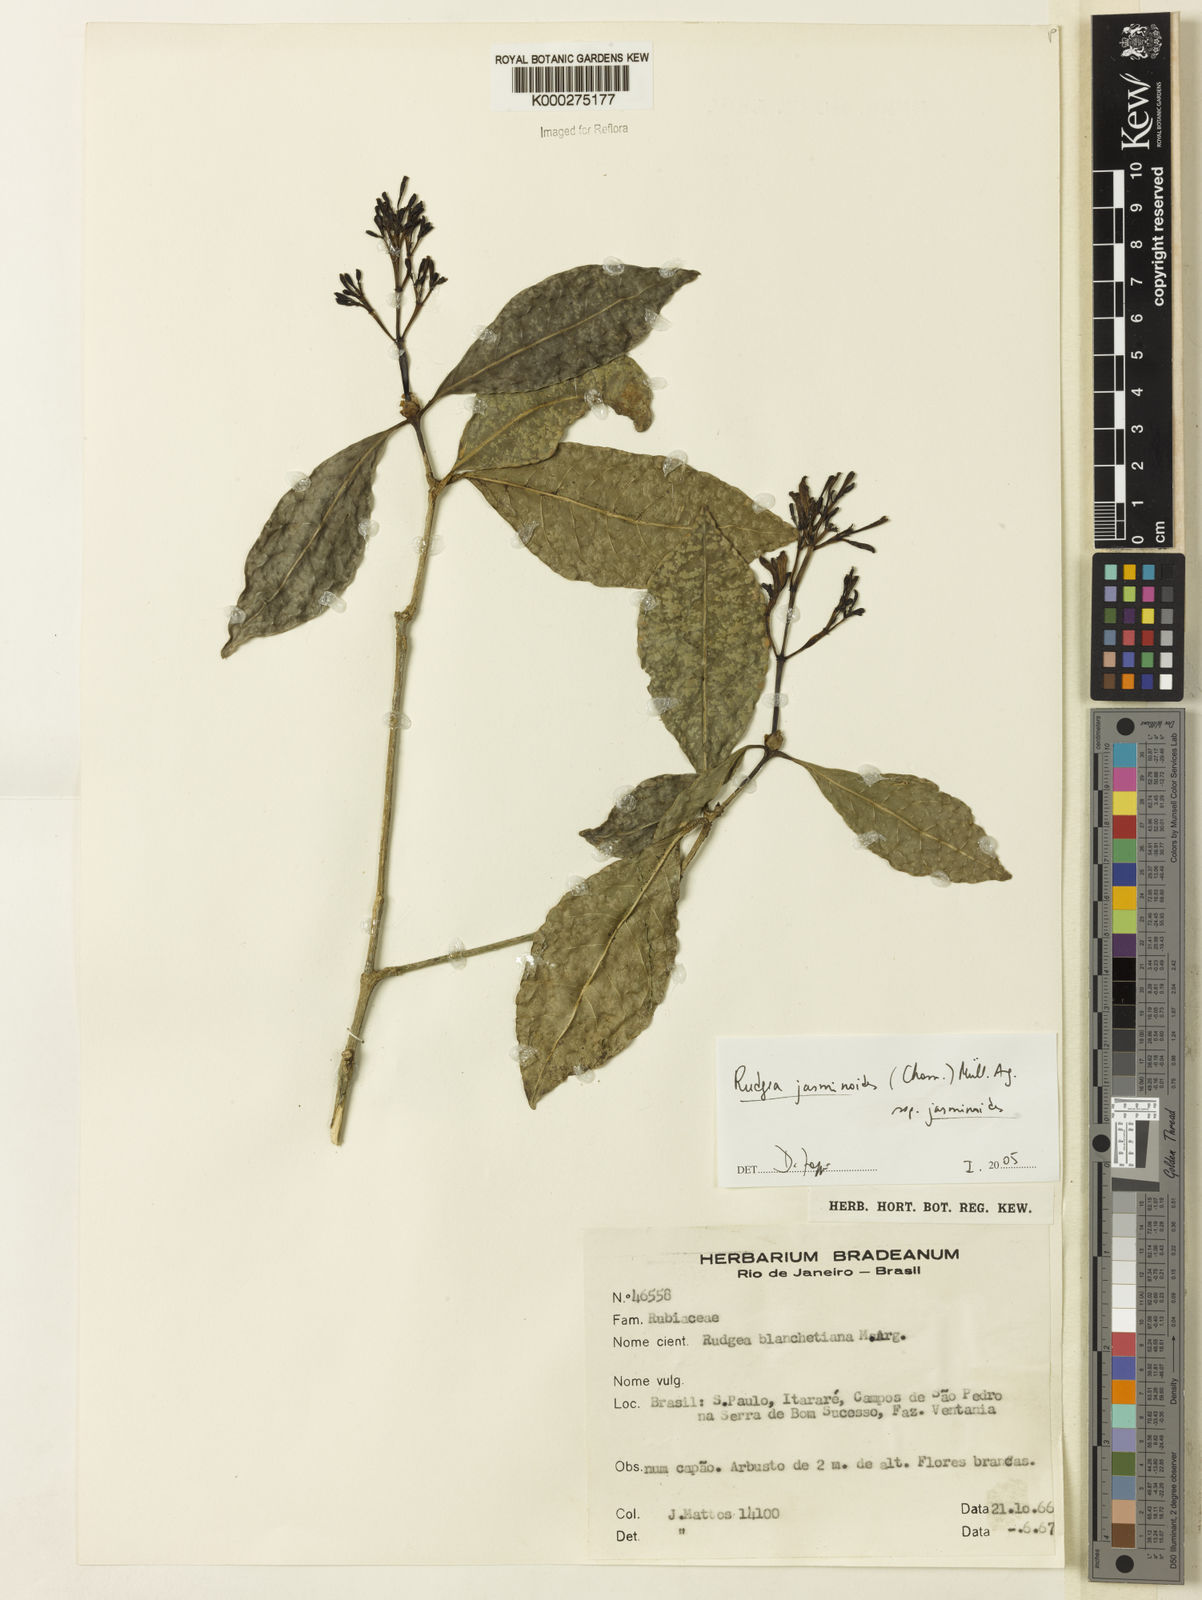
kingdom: Plantae
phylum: Tracheophyta
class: Magnoliopsida
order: Gentianales
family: Rubiaceae
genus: Rudgea
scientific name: Rudgea jasminoides
